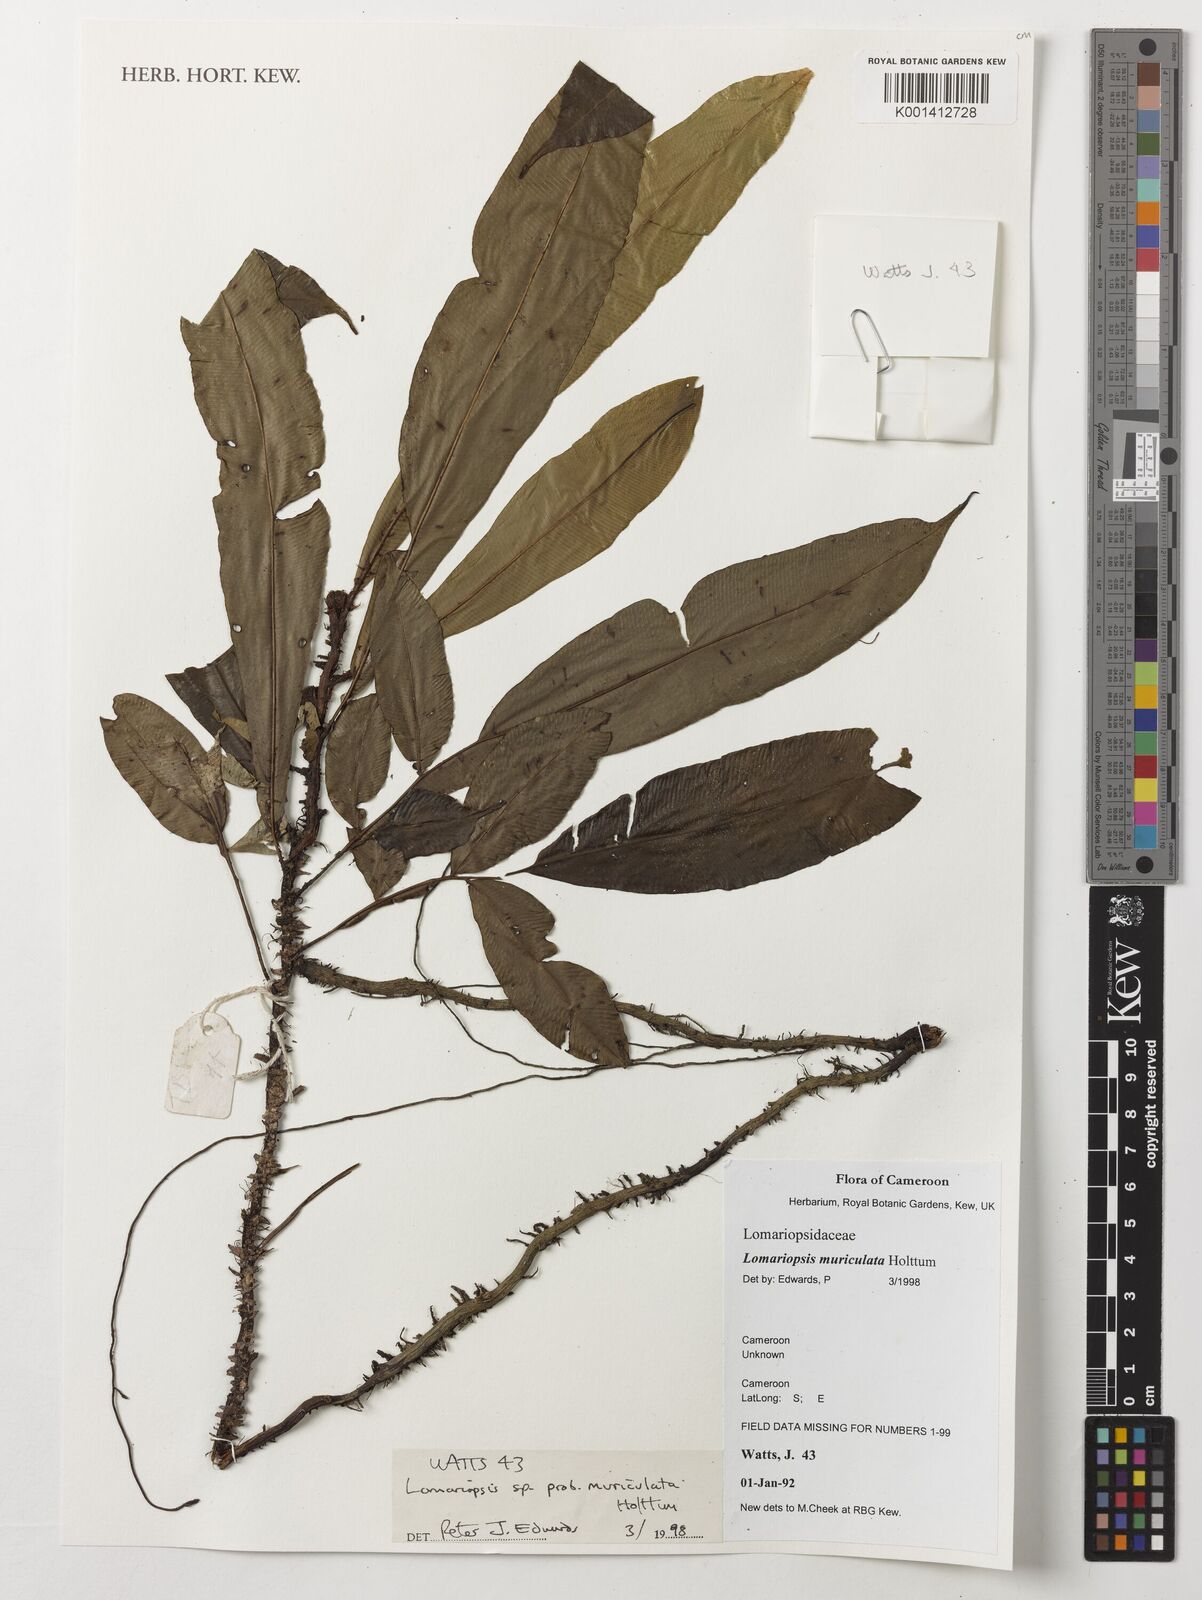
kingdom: Plantae
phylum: Tracheophyta
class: Polypodiopsida
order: Polypodiales
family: Lomariopsidaceae
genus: Lomariopsis
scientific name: Lomariopsis muriculata
